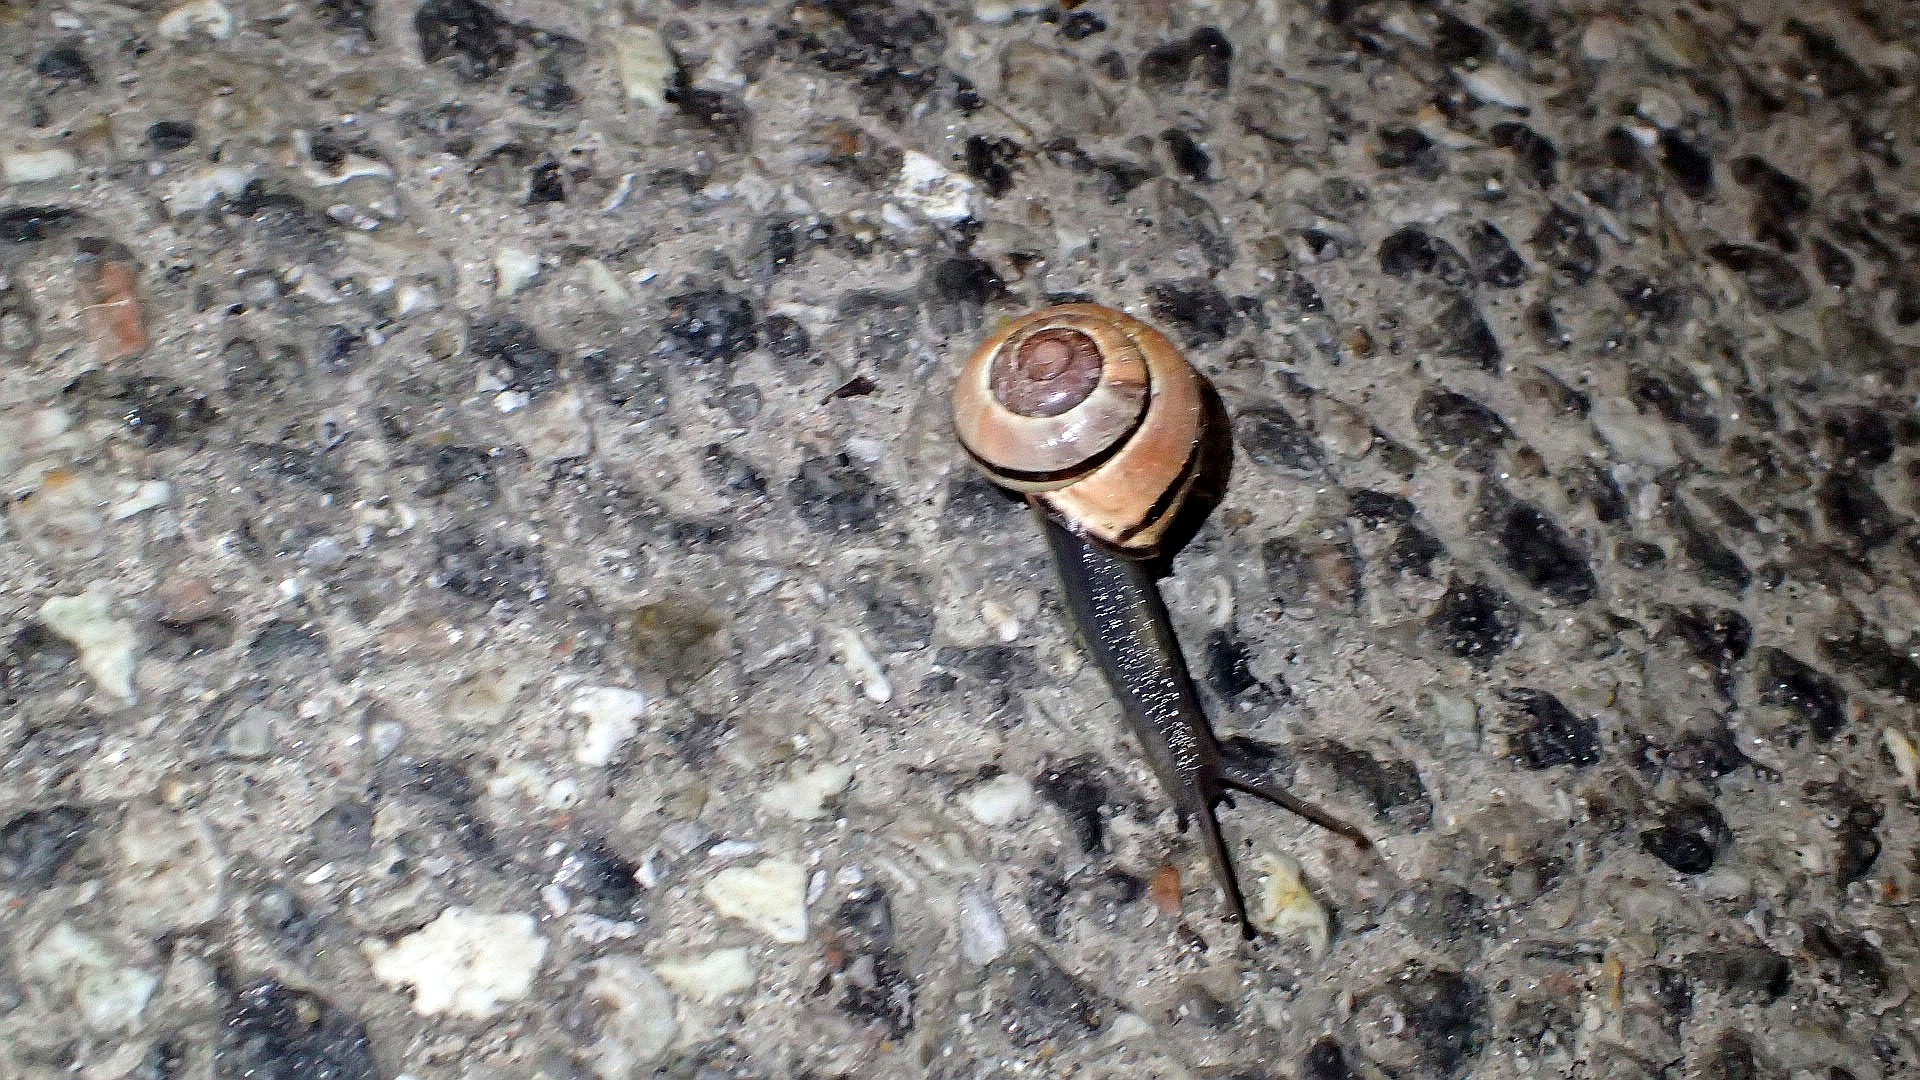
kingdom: Animalia
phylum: Mollusca
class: Gastropoda
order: Stylommatophora
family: Helicidae
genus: Cepaea
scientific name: Cepaea nemoralis
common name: Lundsnegl
